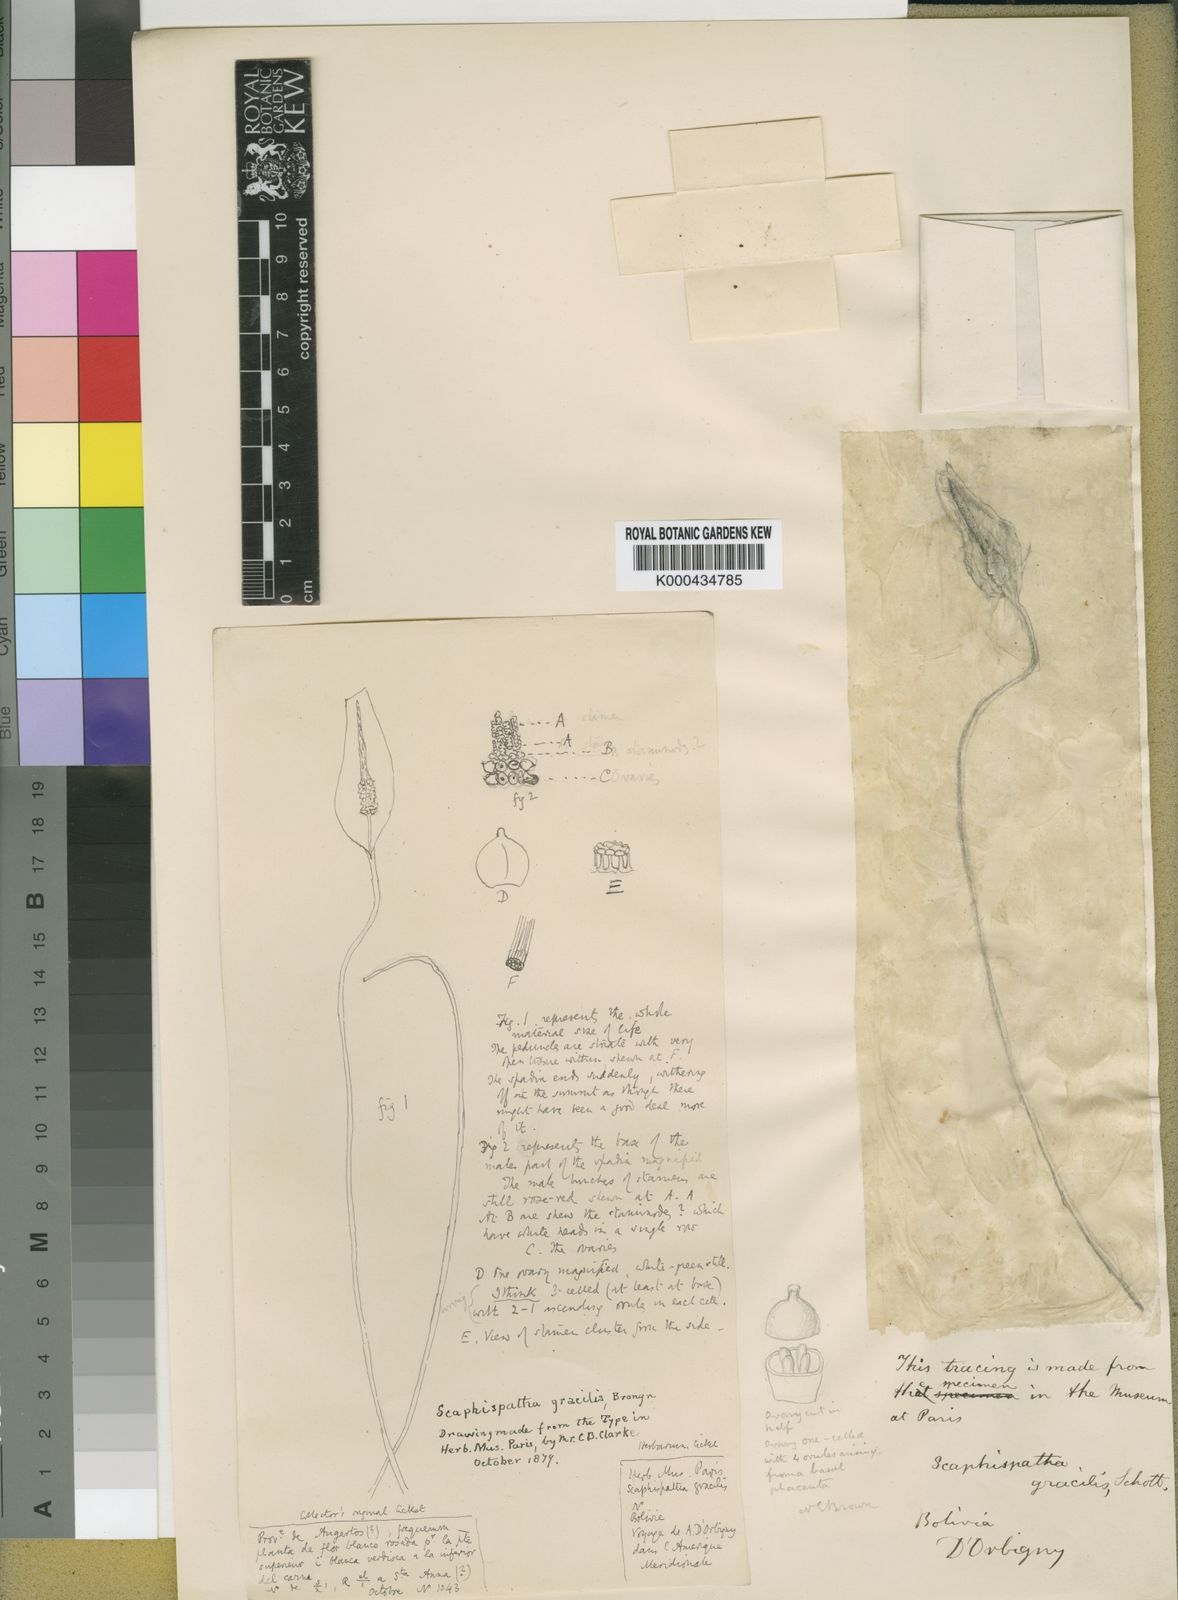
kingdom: Plantae
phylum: Tracheophyta
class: Liliopsida
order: Alismatales
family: Araceae
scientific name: Araceae
